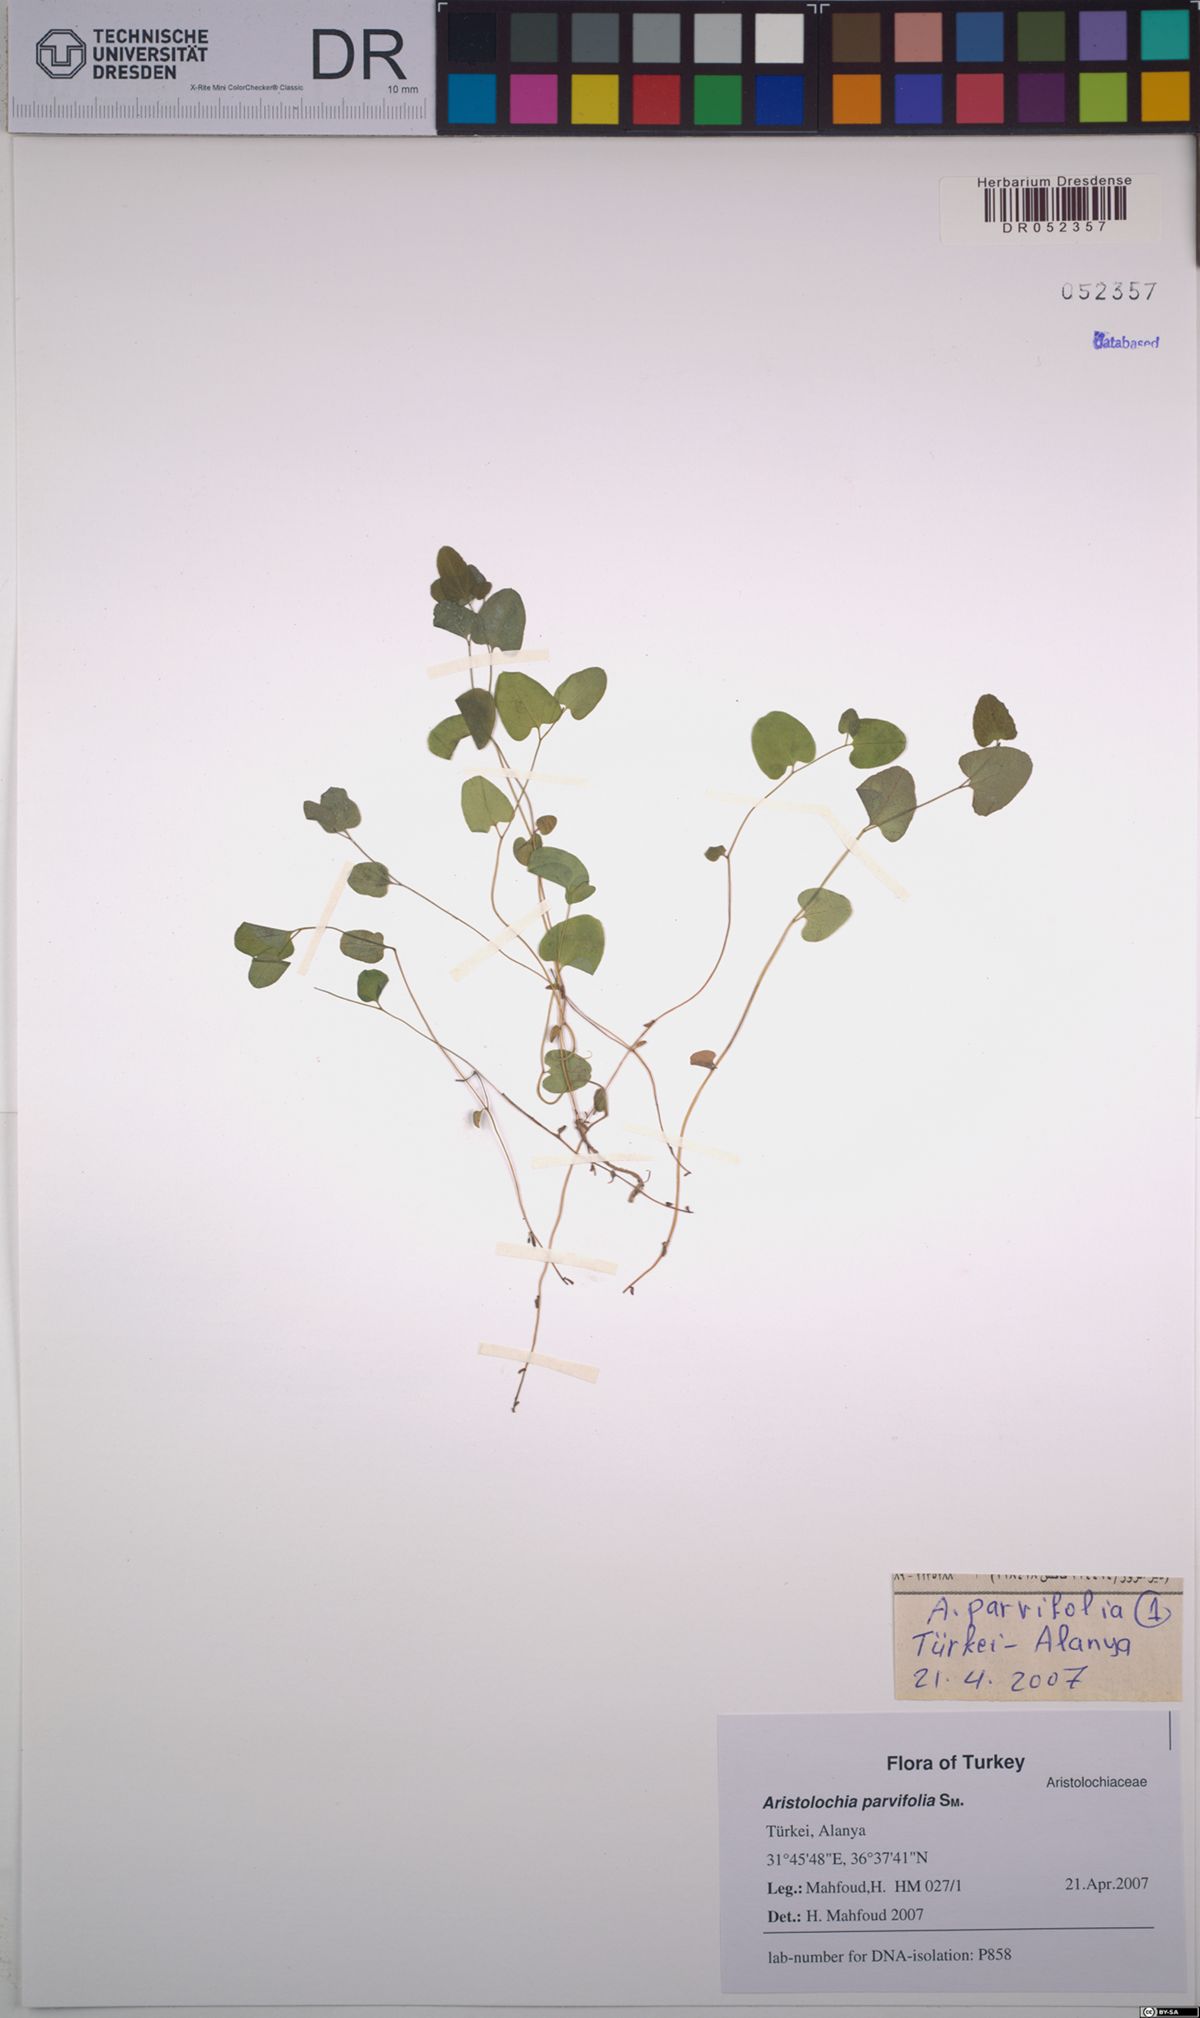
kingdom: Plantae
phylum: Tracheophyta
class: Magnoliopsida
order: Piperales
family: Aristolochiaceae
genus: Aristolochia
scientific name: Aristolochia parvifolia
